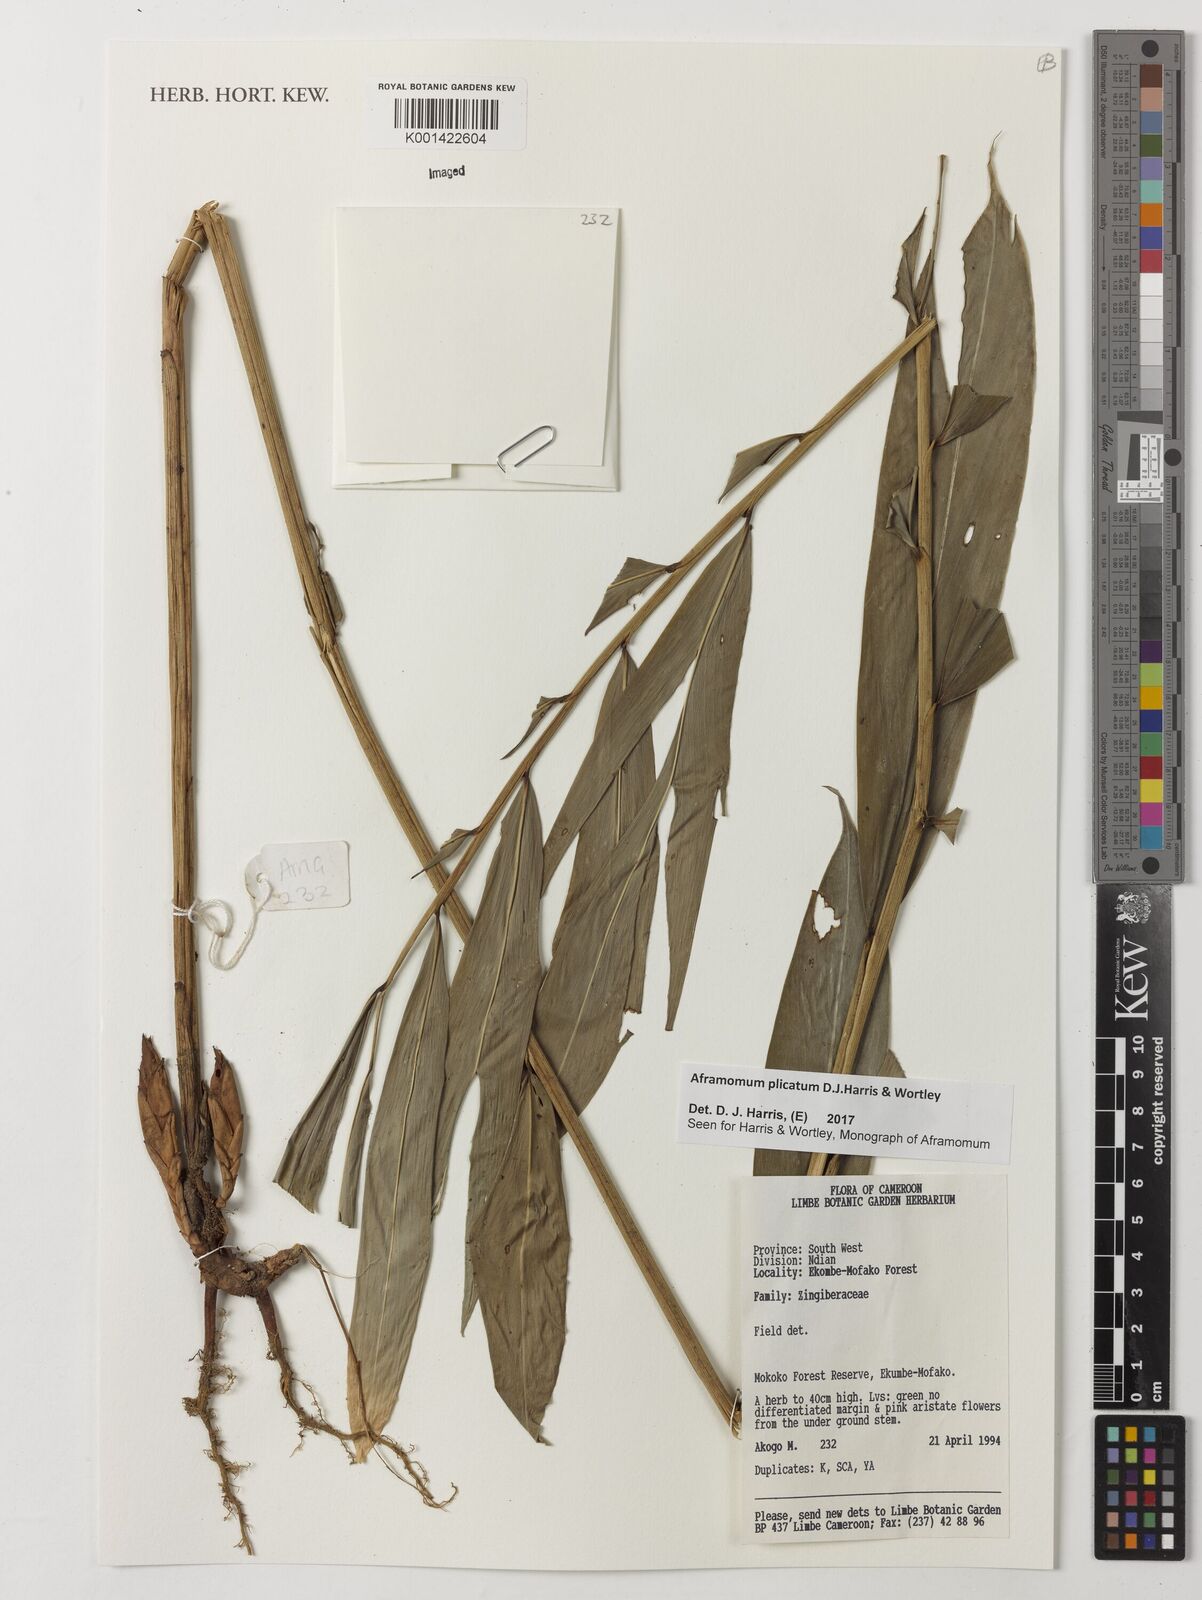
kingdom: Plantae
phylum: Tracheophyta
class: Liliopsida
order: Zingiberales
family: Zingiberaceae
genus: Aframomum
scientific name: Aframomum plicatum
